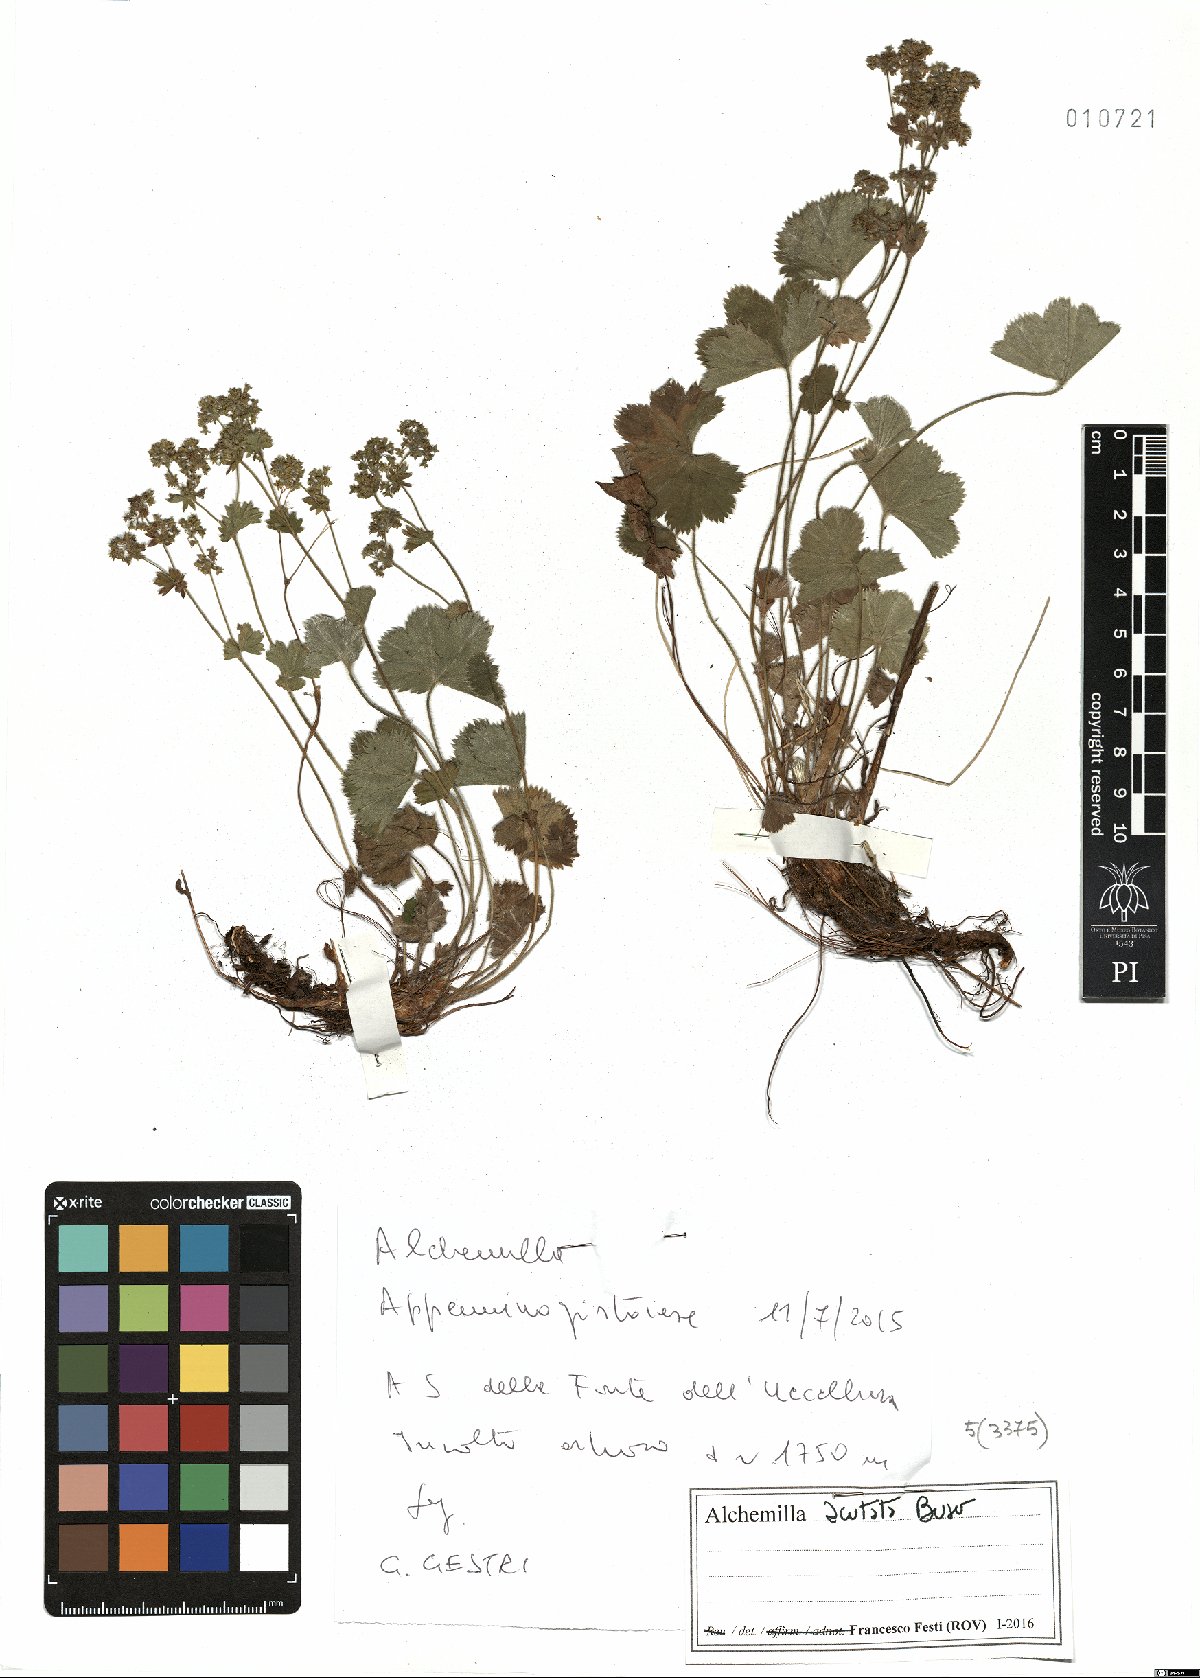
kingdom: Plantae
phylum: Tracheophyta
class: Magnoliopsida
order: Rosales
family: Rosaceae
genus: Alchemilla
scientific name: Alchemilla acutata
